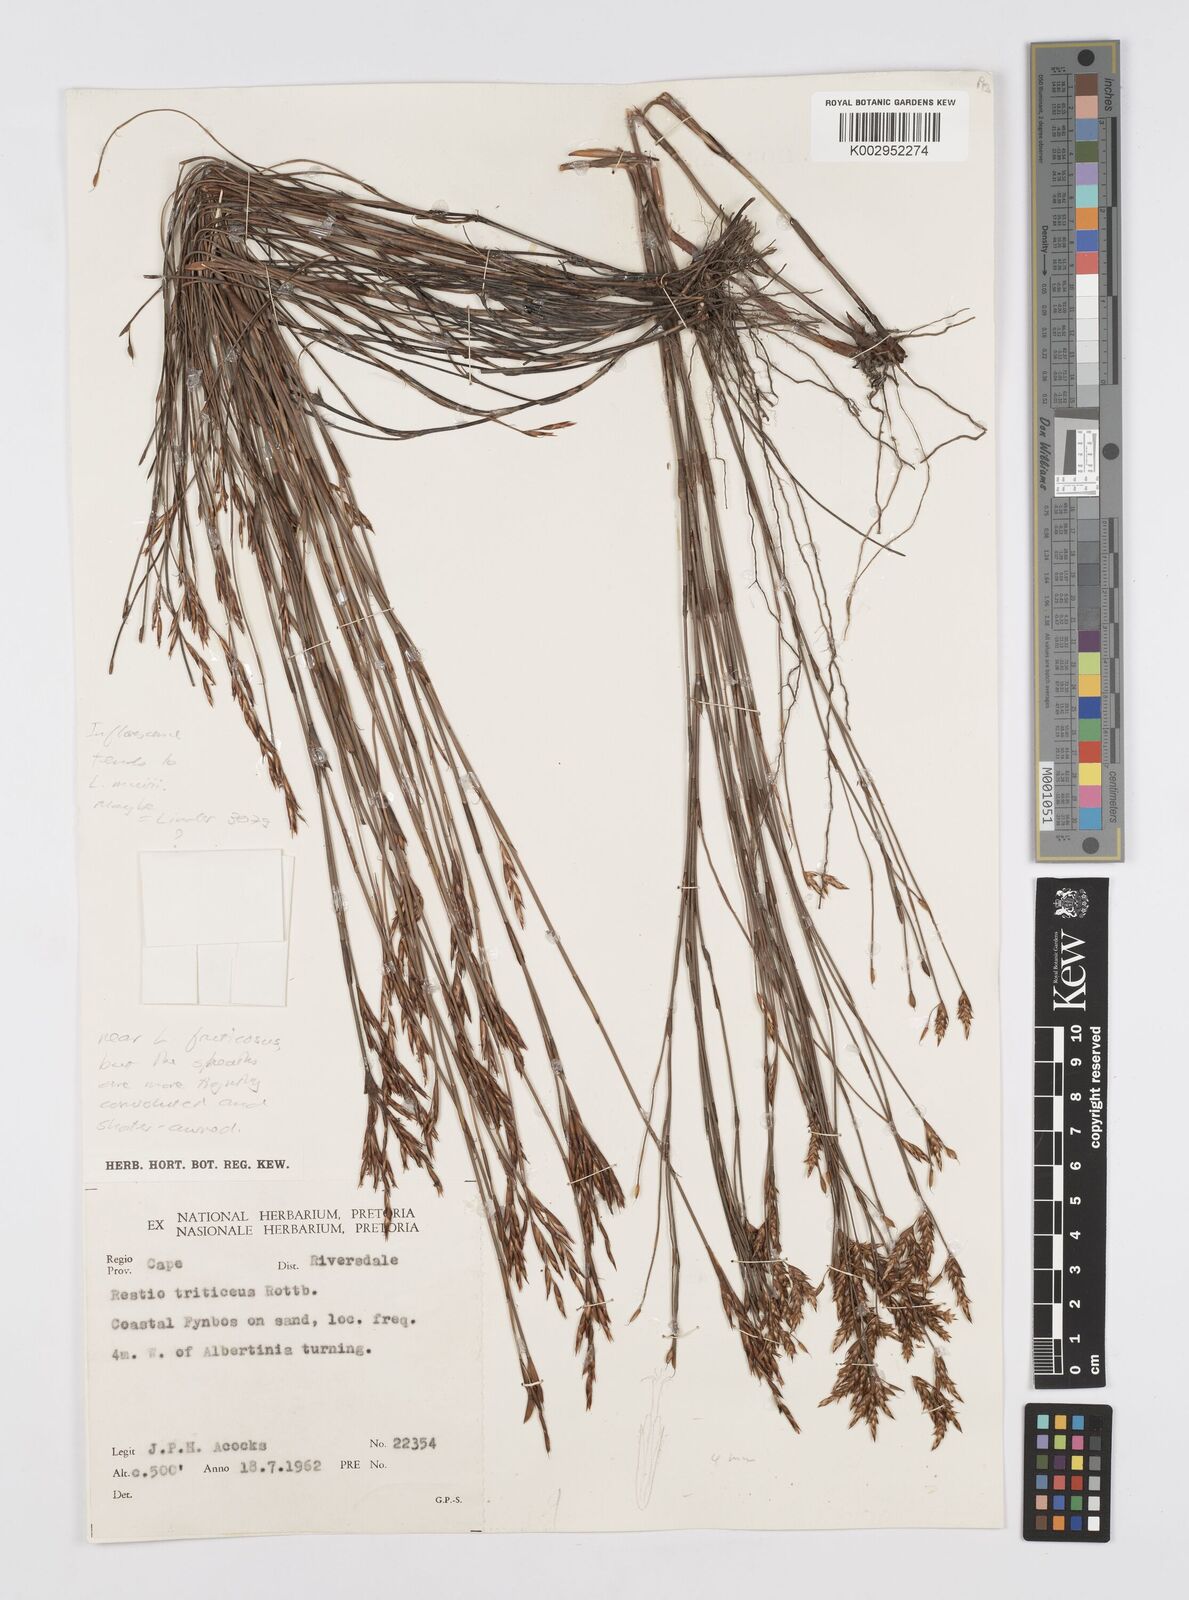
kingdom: Plantae
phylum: Tracheophyta
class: Liliopsida
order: Poales
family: Restionaceae
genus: Restio
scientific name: Restio
